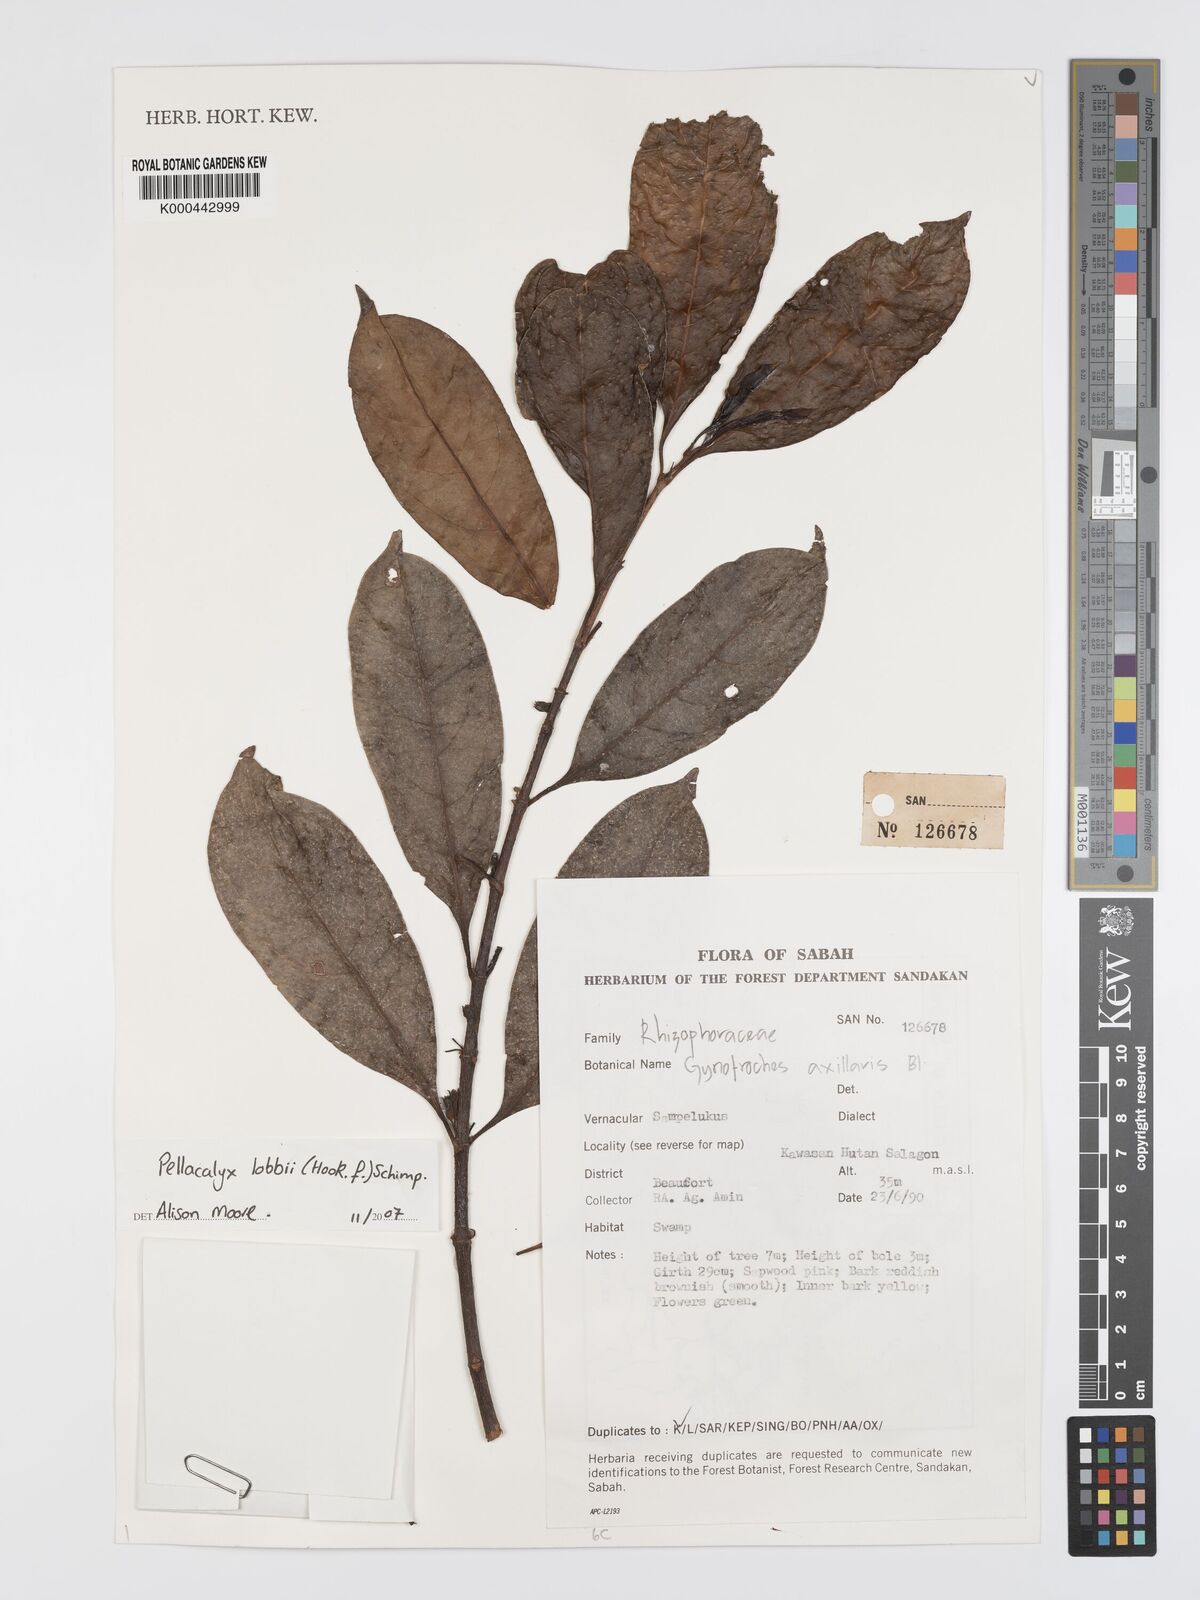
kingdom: Plantae
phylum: Tracheophyta
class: Magnoliopsida
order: Malpighiales
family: Rhizophoraceae
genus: Pellacalyx
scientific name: Pellacalyx
